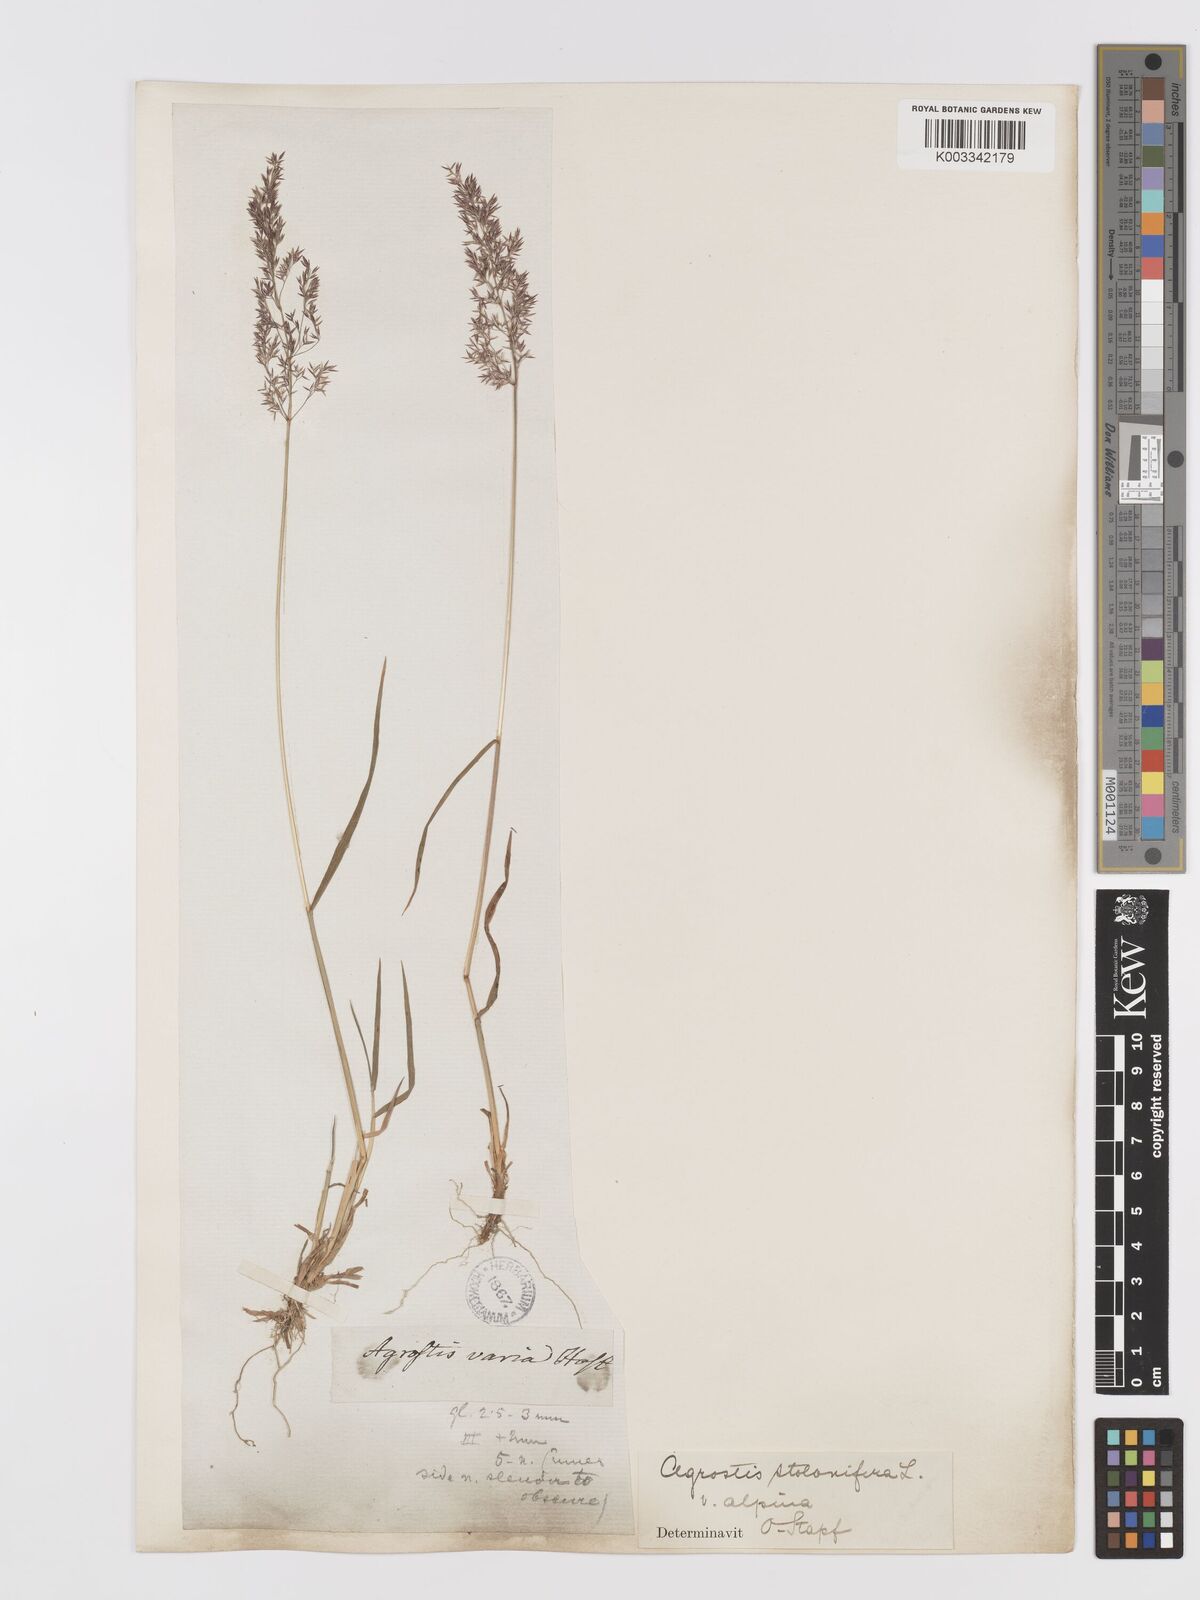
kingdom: Plantae
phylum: Tracheophyta
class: Liliopsida
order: Poales
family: Poaceae
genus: Agrostis
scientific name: Agrostis stolonifera
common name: Creeping bentgrass
